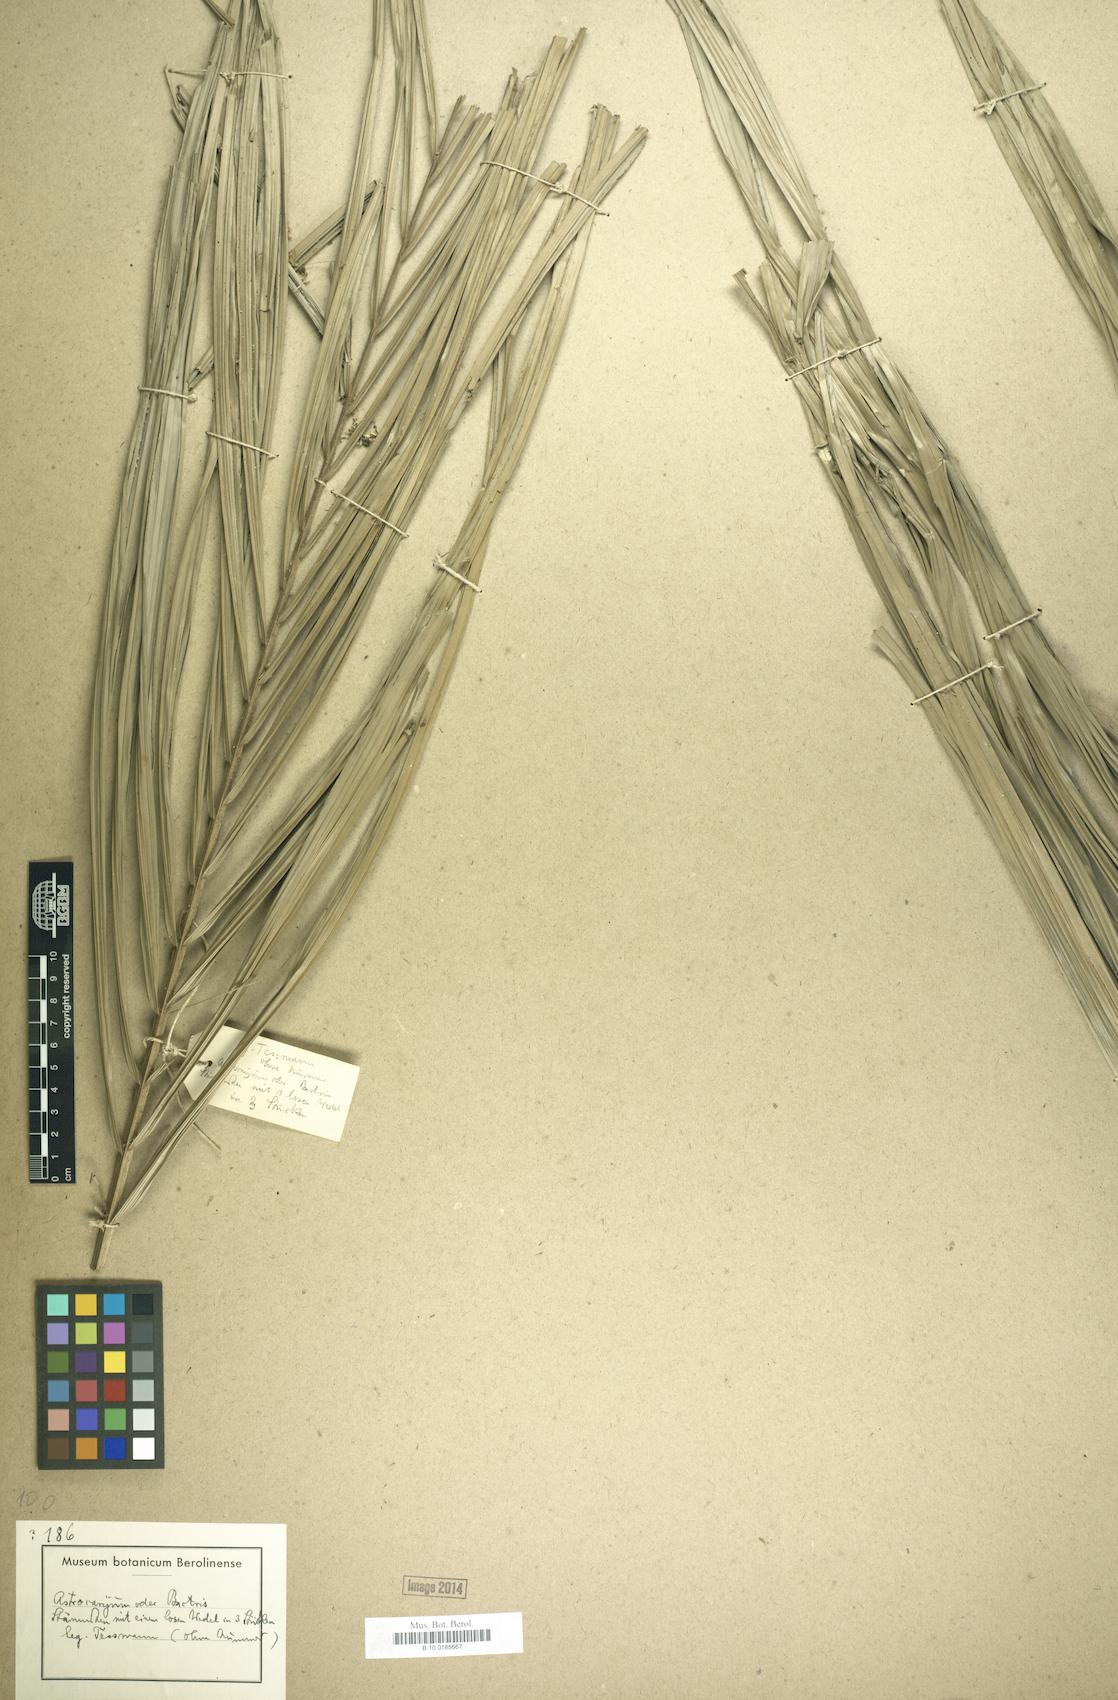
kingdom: Plantae
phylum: Tracheophyta
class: Liliopsida
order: Arecales
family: Arecaceae
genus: Astrocaryum
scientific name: Astrocaryum
